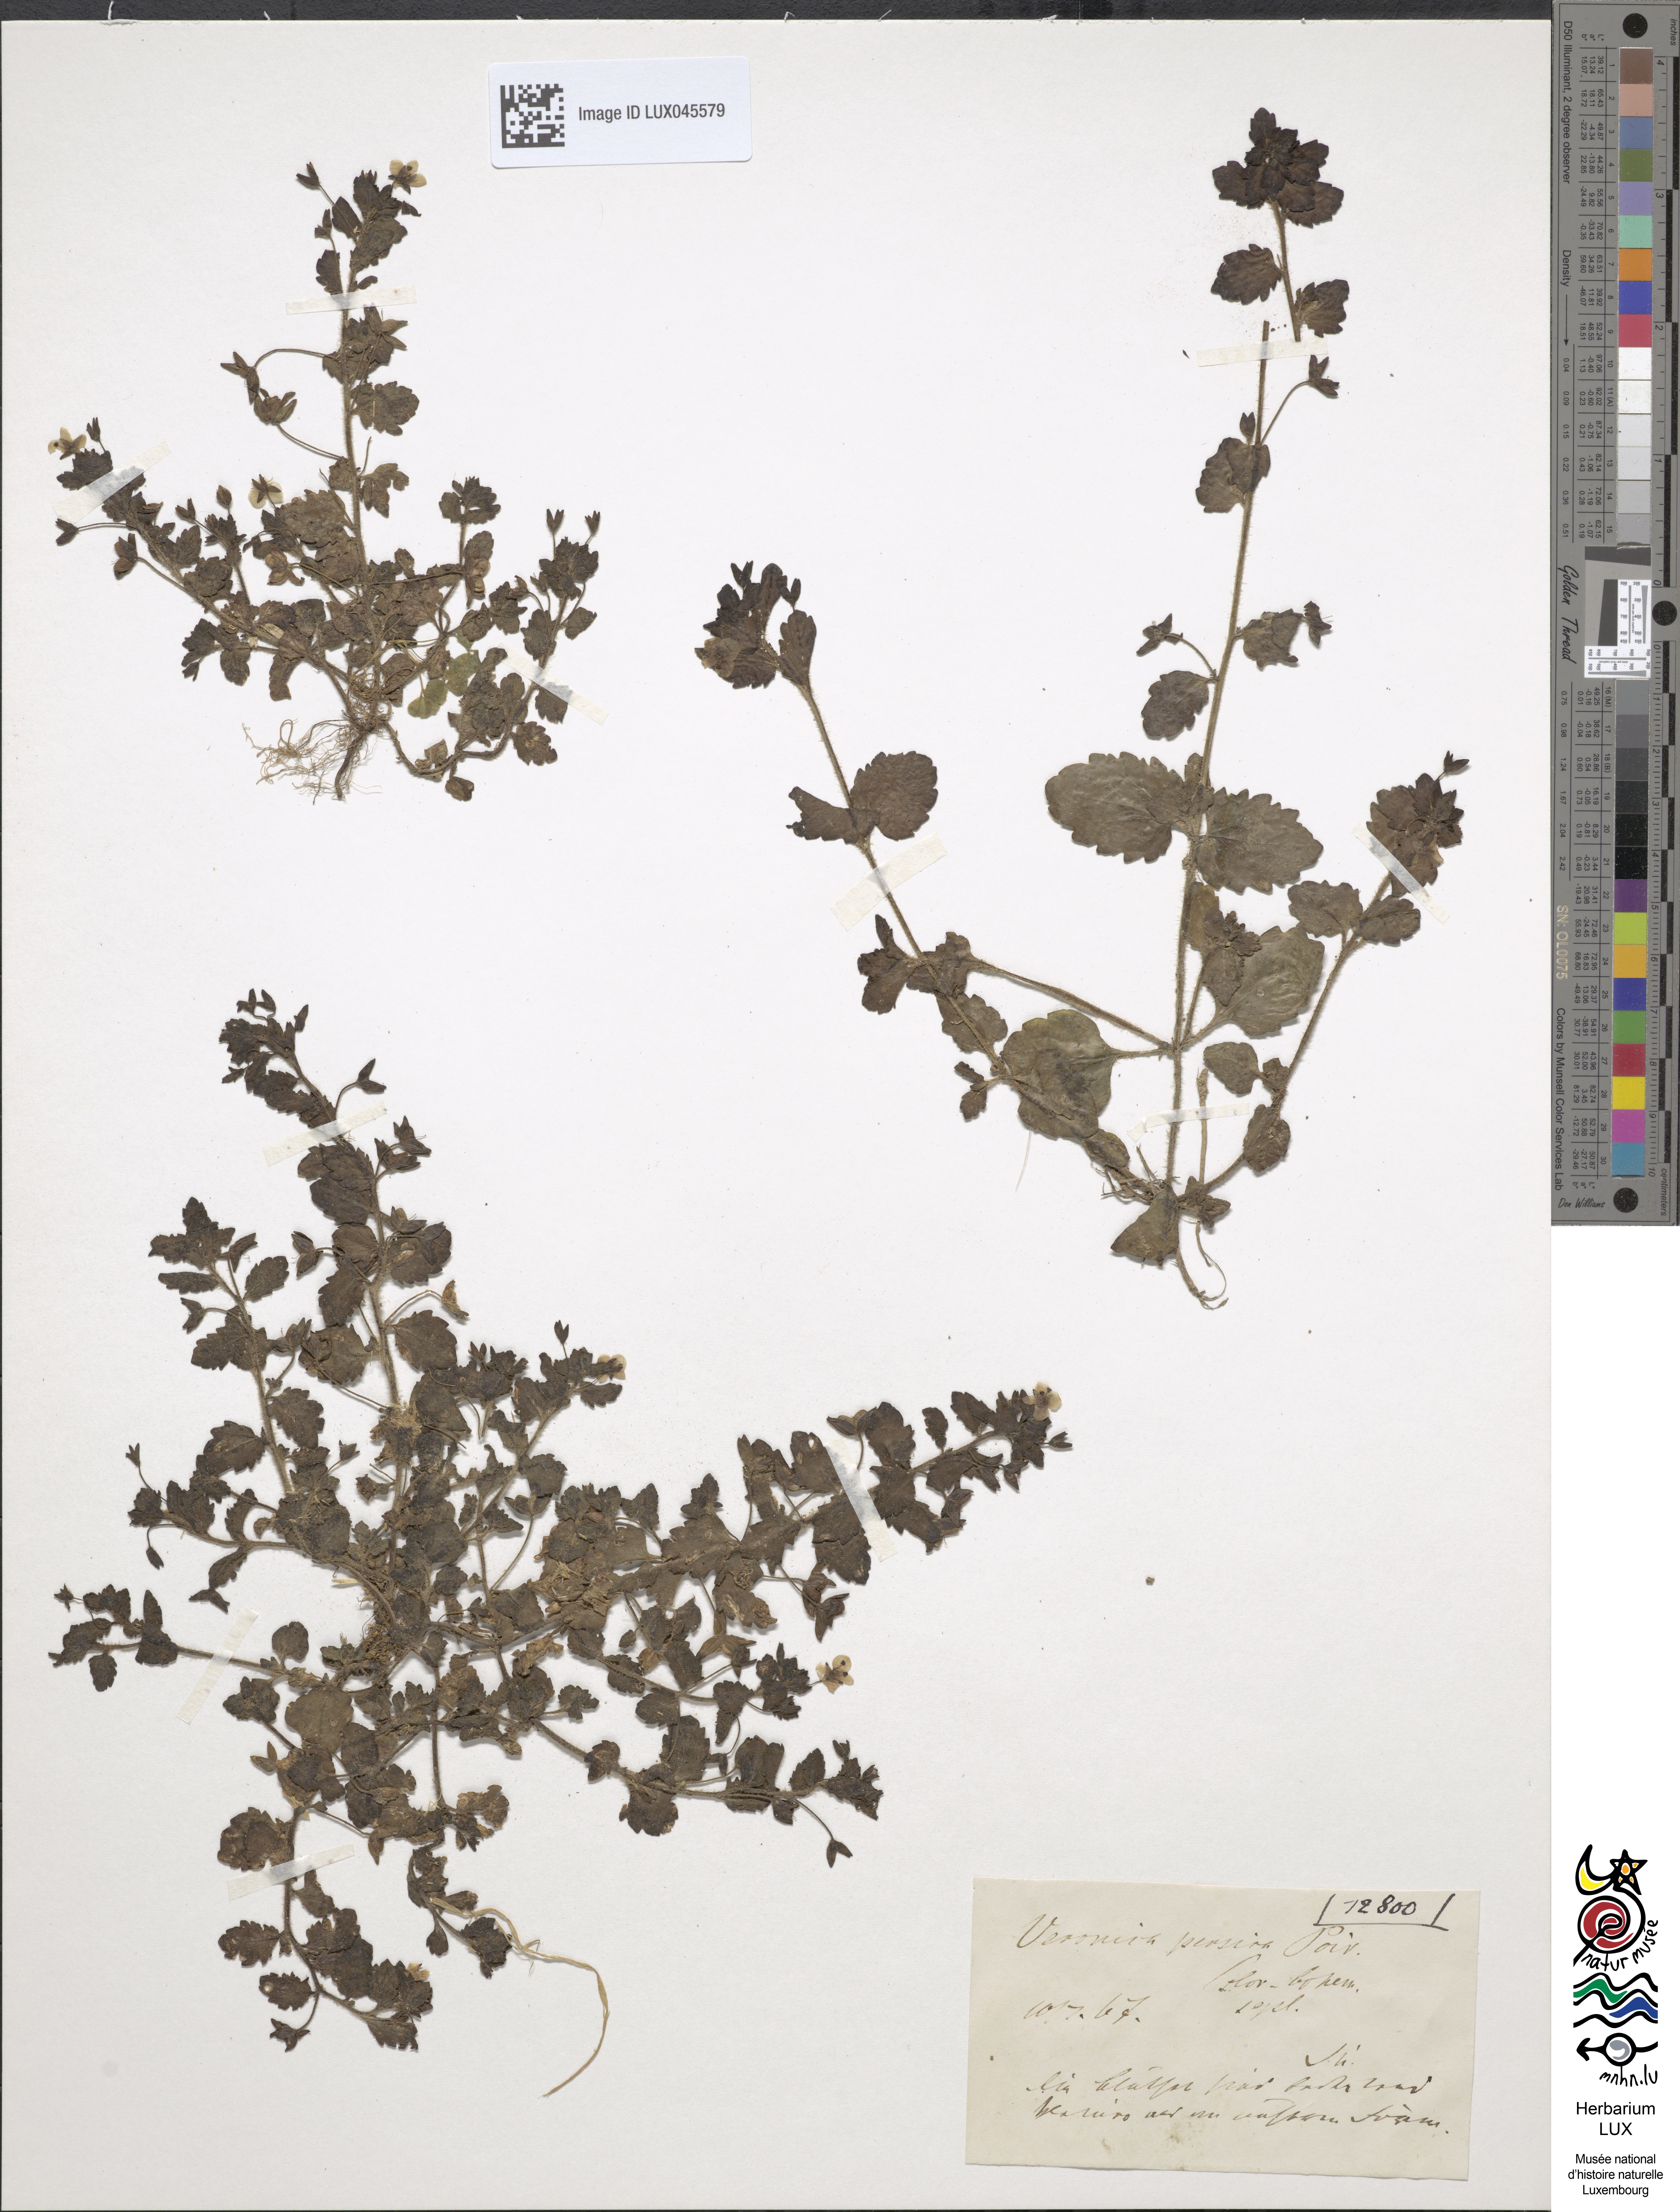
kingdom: Plantae
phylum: Tracheophyta
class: Magnoliopsida
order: Lamiales
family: Plantaginaceae
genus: Veronica
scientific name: Veronica persica
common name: Common field-speedwell
